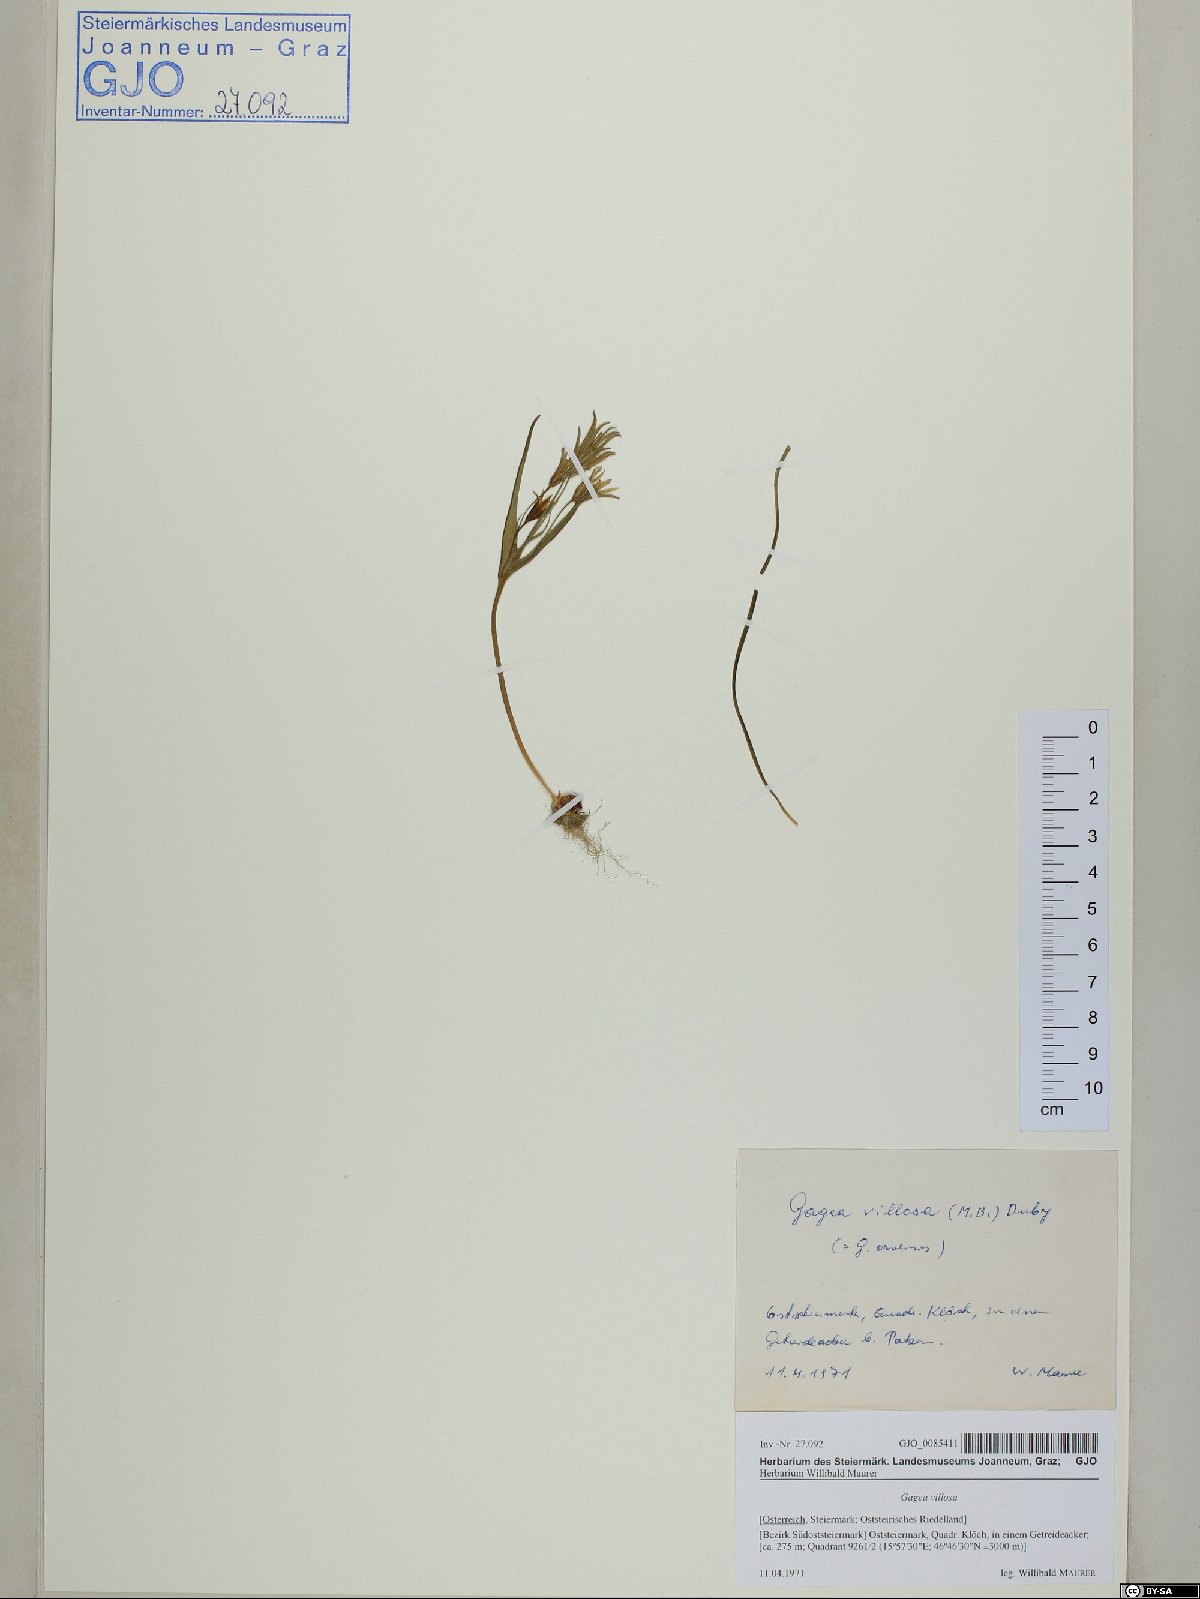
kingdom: Plantae
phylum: Tracheophyta
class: Liliopsida
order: Liliales
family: Liliaceae
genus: Gagea
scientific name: Gagea villosa
